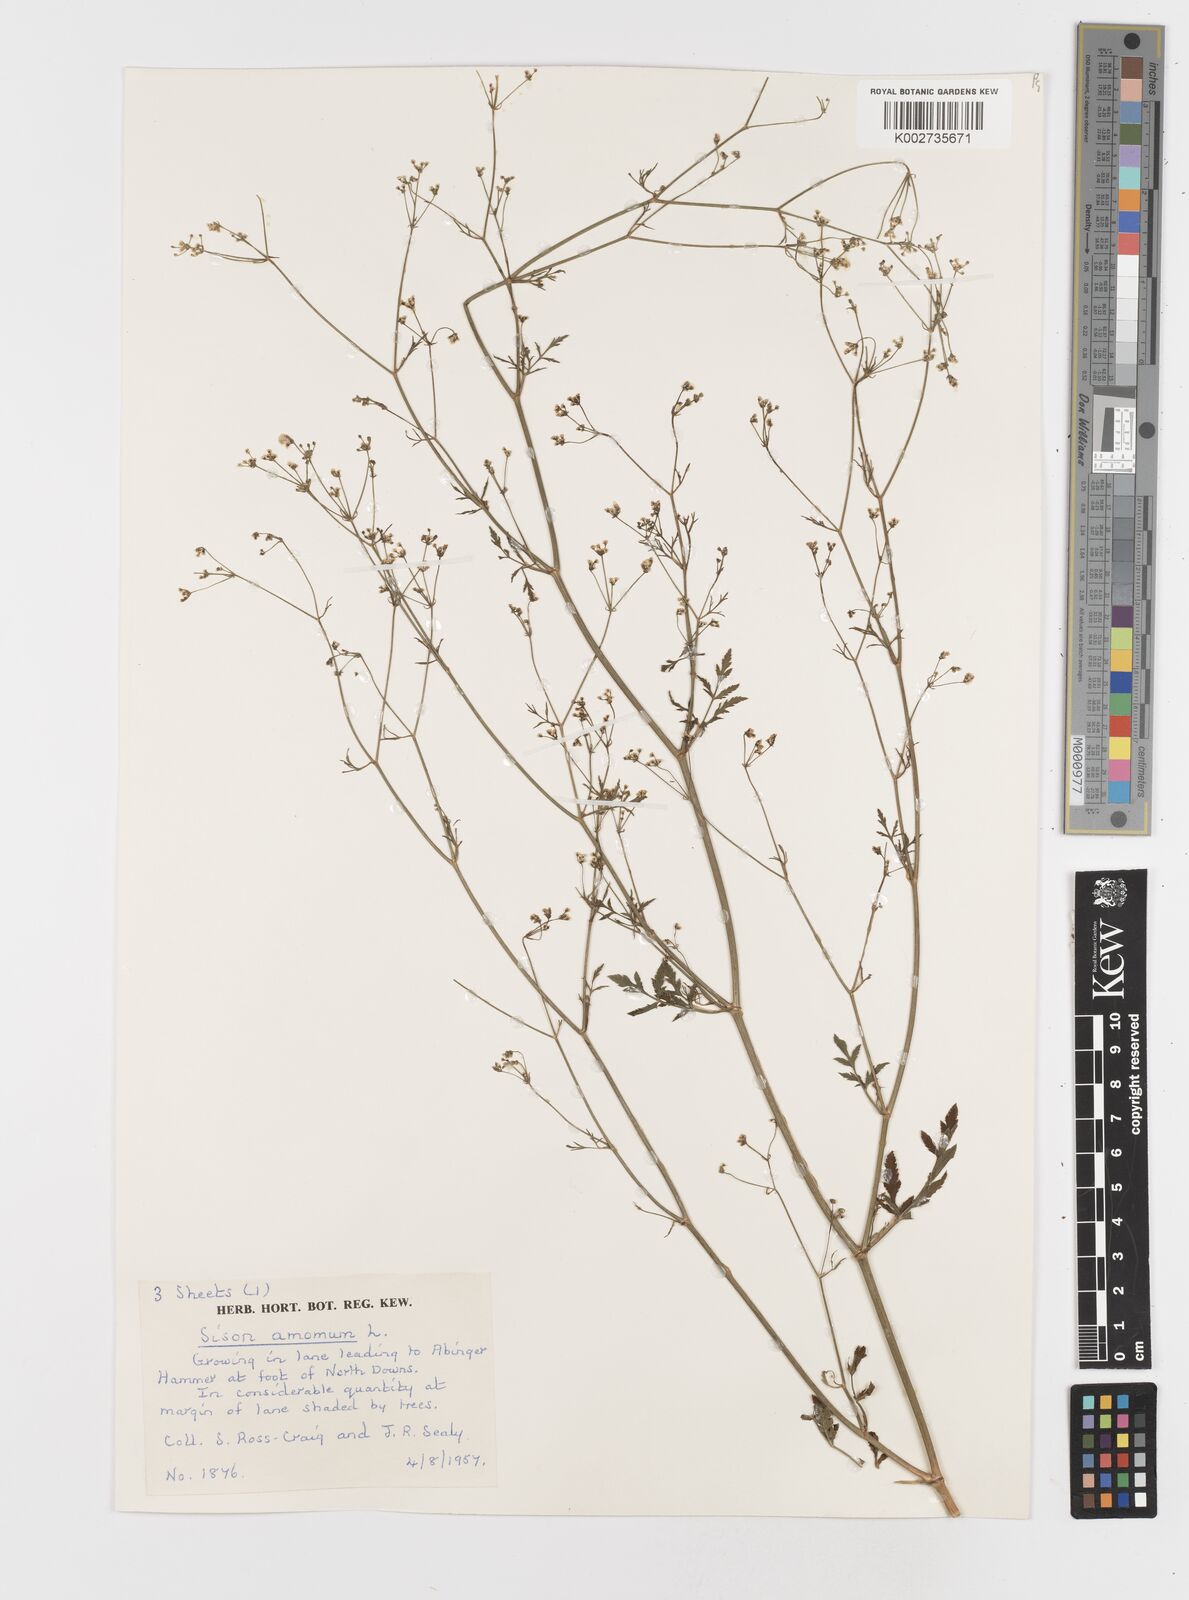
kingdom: Plantae
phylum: Tracheophyta
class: Magnoliopsida
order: Apiales
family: Apiaceae
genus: Sison
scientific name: Sison amomum
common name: Stone-parsley
